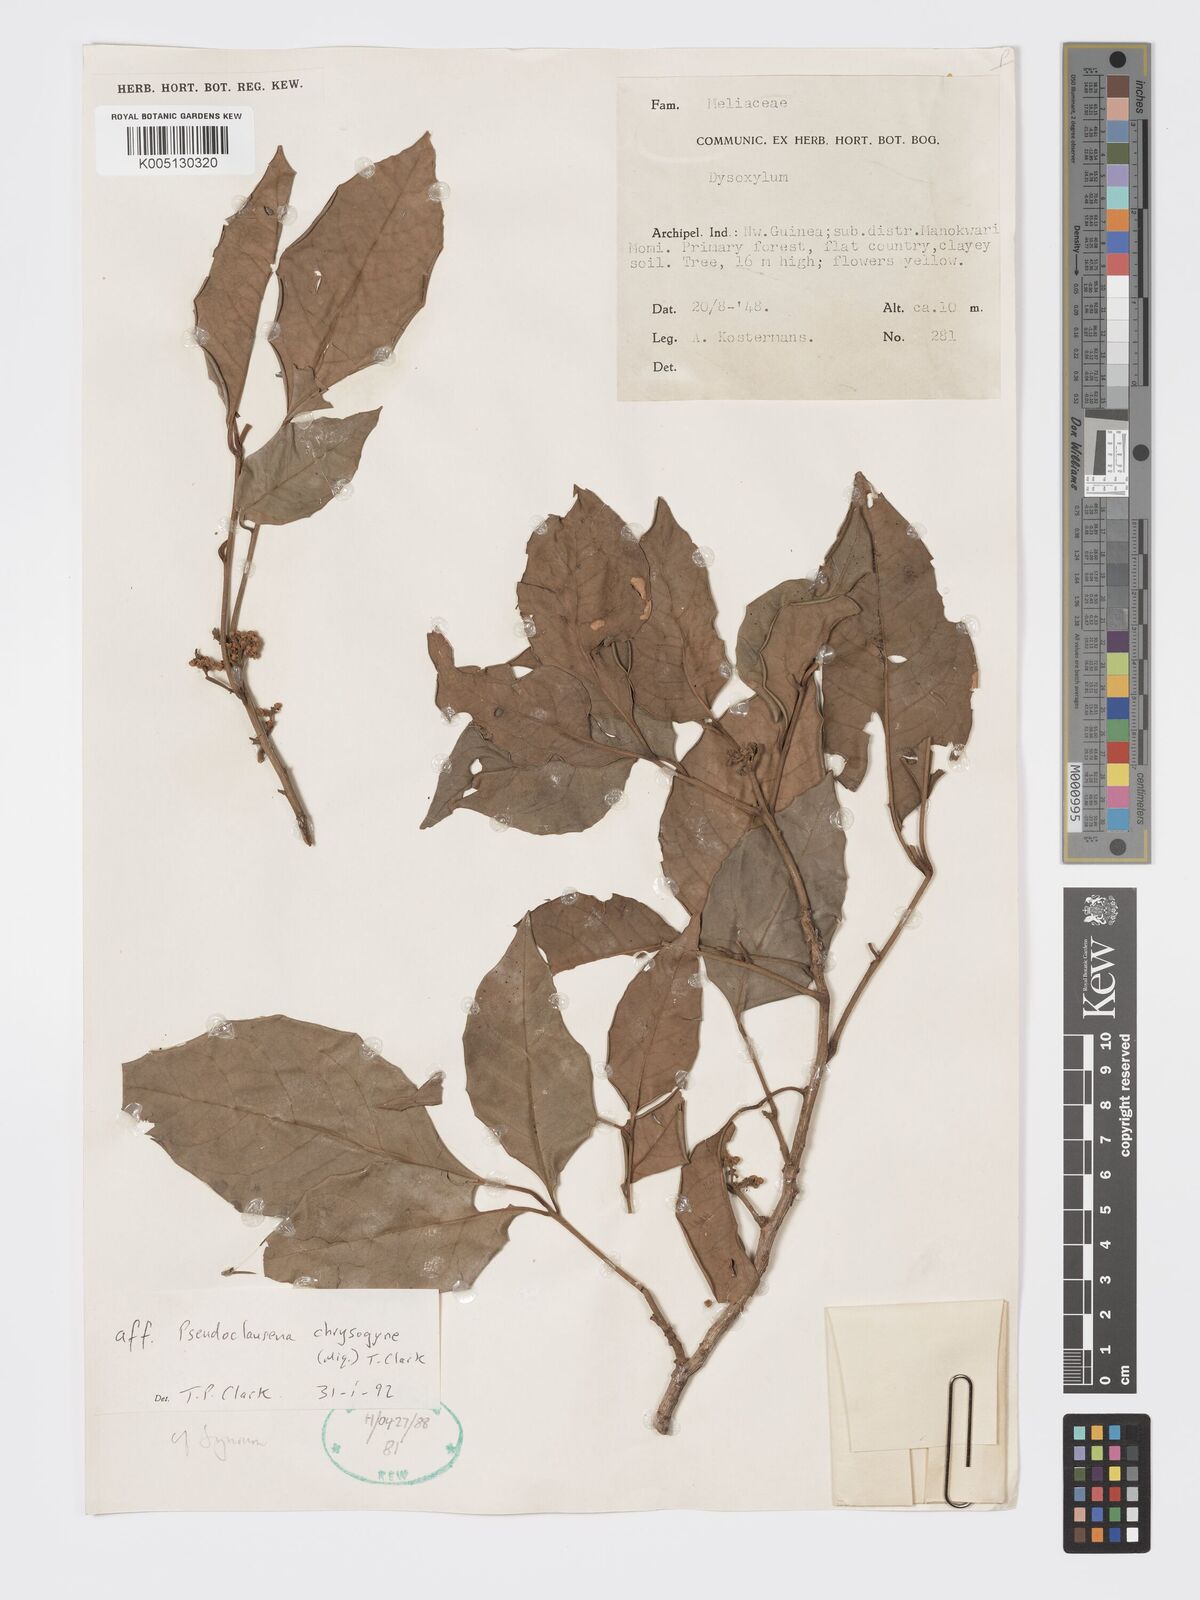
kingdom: Plantae
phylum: Tracheophyta
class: Magnoliopsida
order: Sapindales
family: Meliaceae
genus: Pseudoclausena
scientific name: Pseudoclausena chrysogyne
